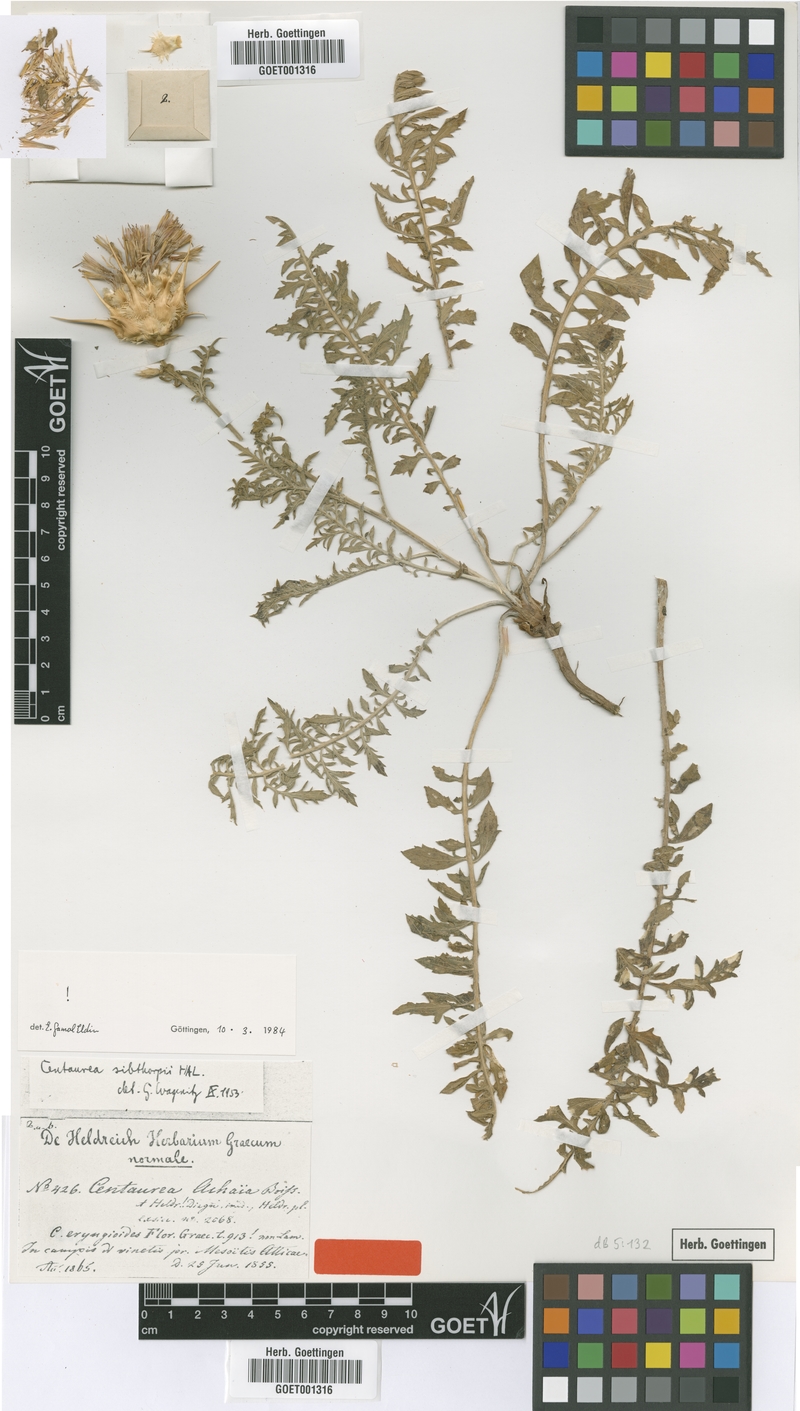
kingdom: Plantae
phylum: Tracheophyta
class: Magnoliopsida
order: Asterales
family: Asteraceae
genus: Centaurea
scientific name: Centaurea achaia
